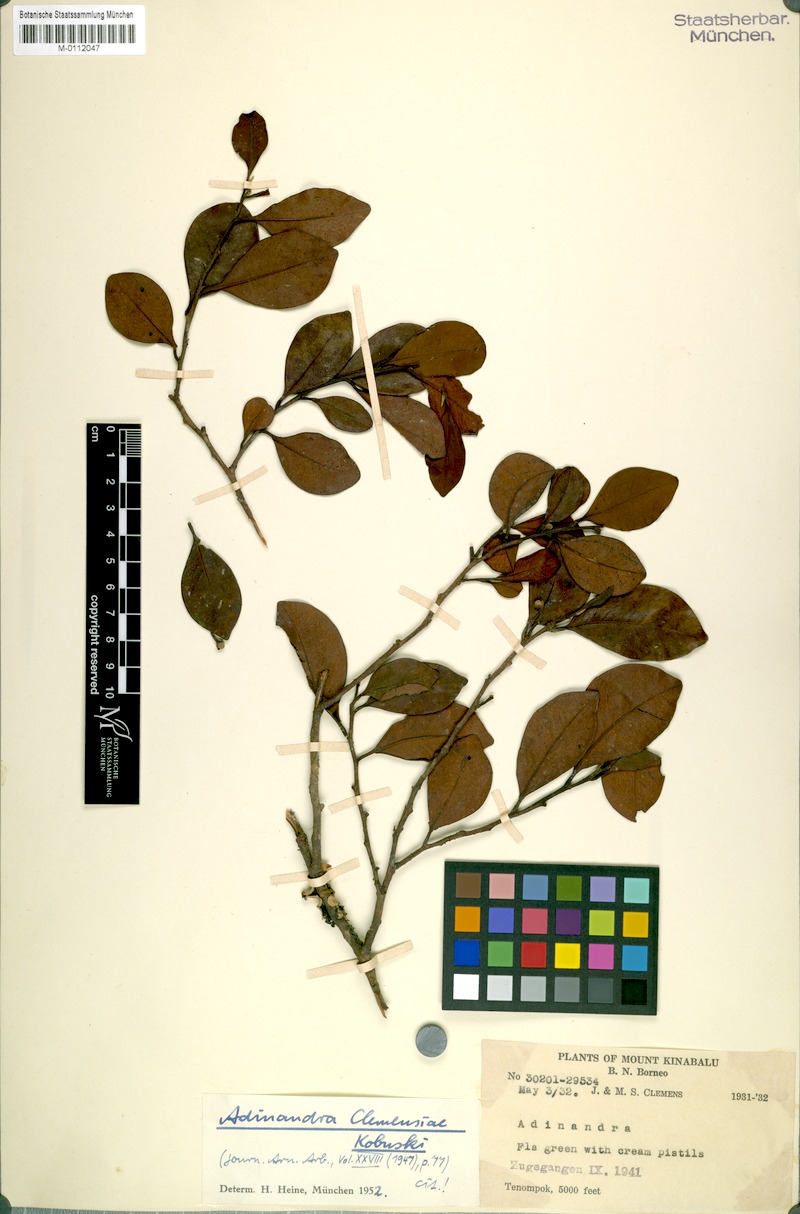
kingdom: Plantae
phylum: Tracheophyta
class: Magnoliopsida
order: Ericales
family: Pentaphylacaceae
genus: Adinandra
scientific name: Adinandra clemensiae
